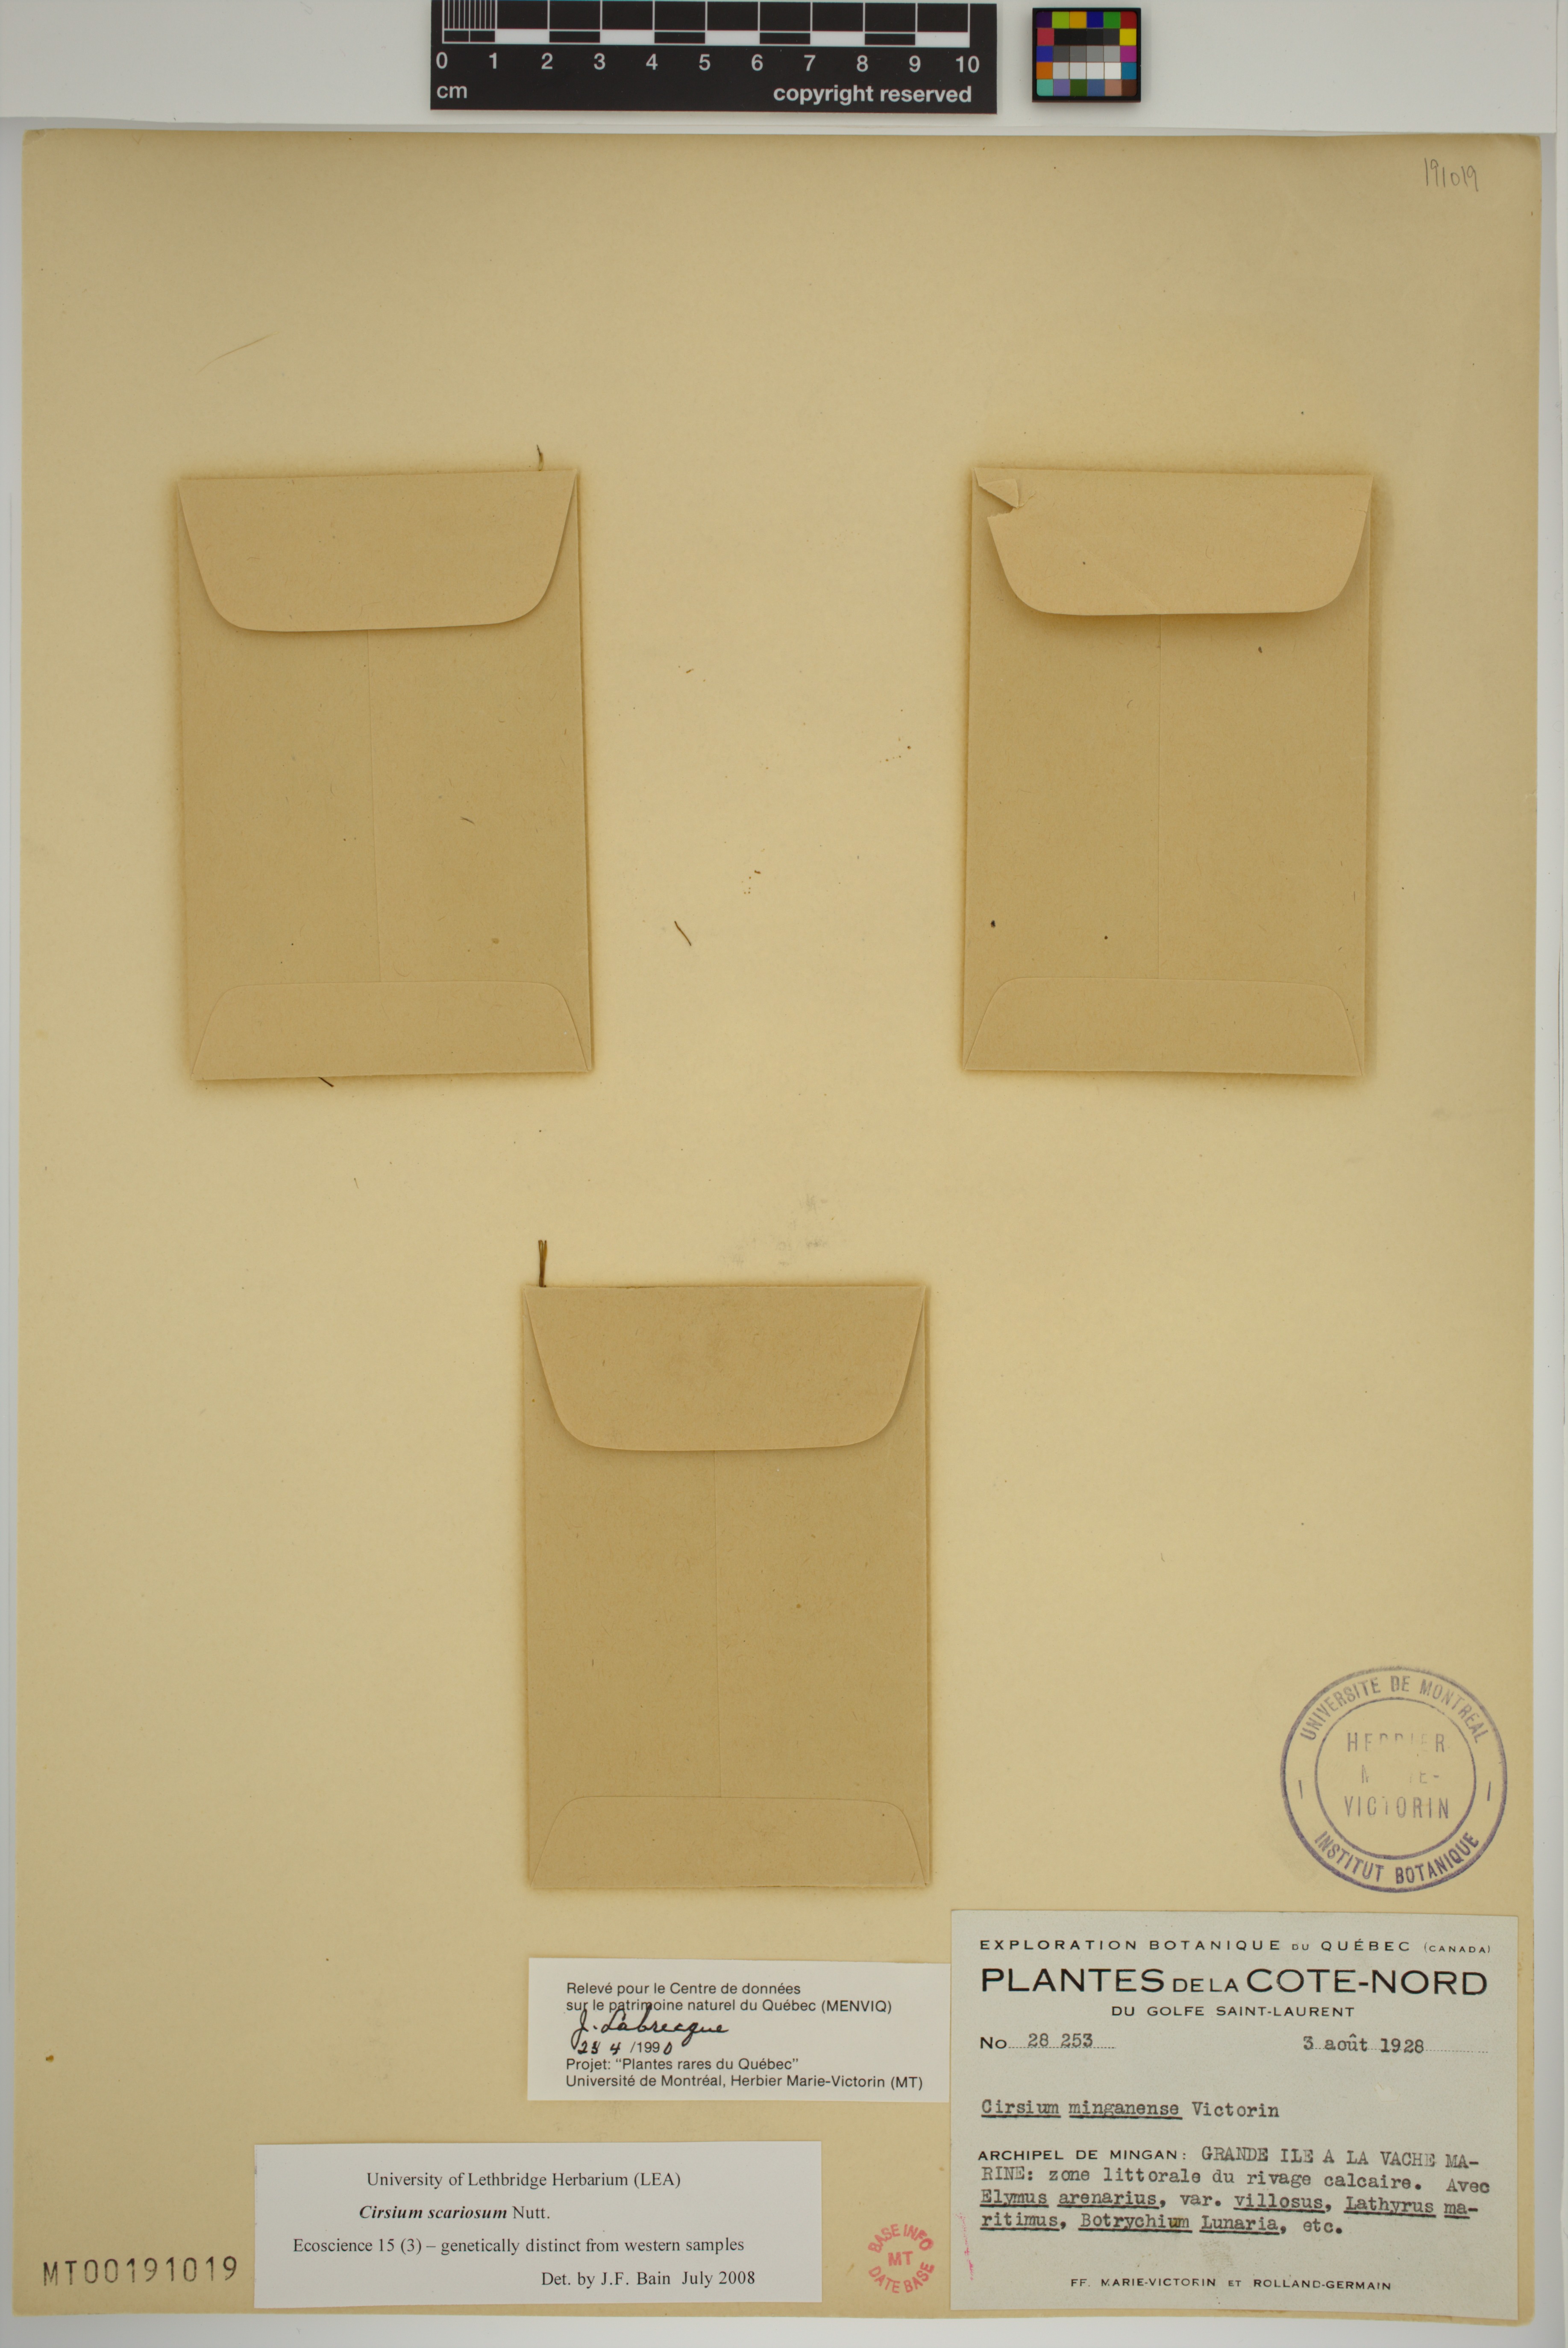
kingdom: Plantae
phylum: Tracheophyta
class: Magnoliopsida
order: Asterales
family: Asteraceae
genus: Cirsium
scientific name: Cirsium scariosum
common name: Meadow thistle
